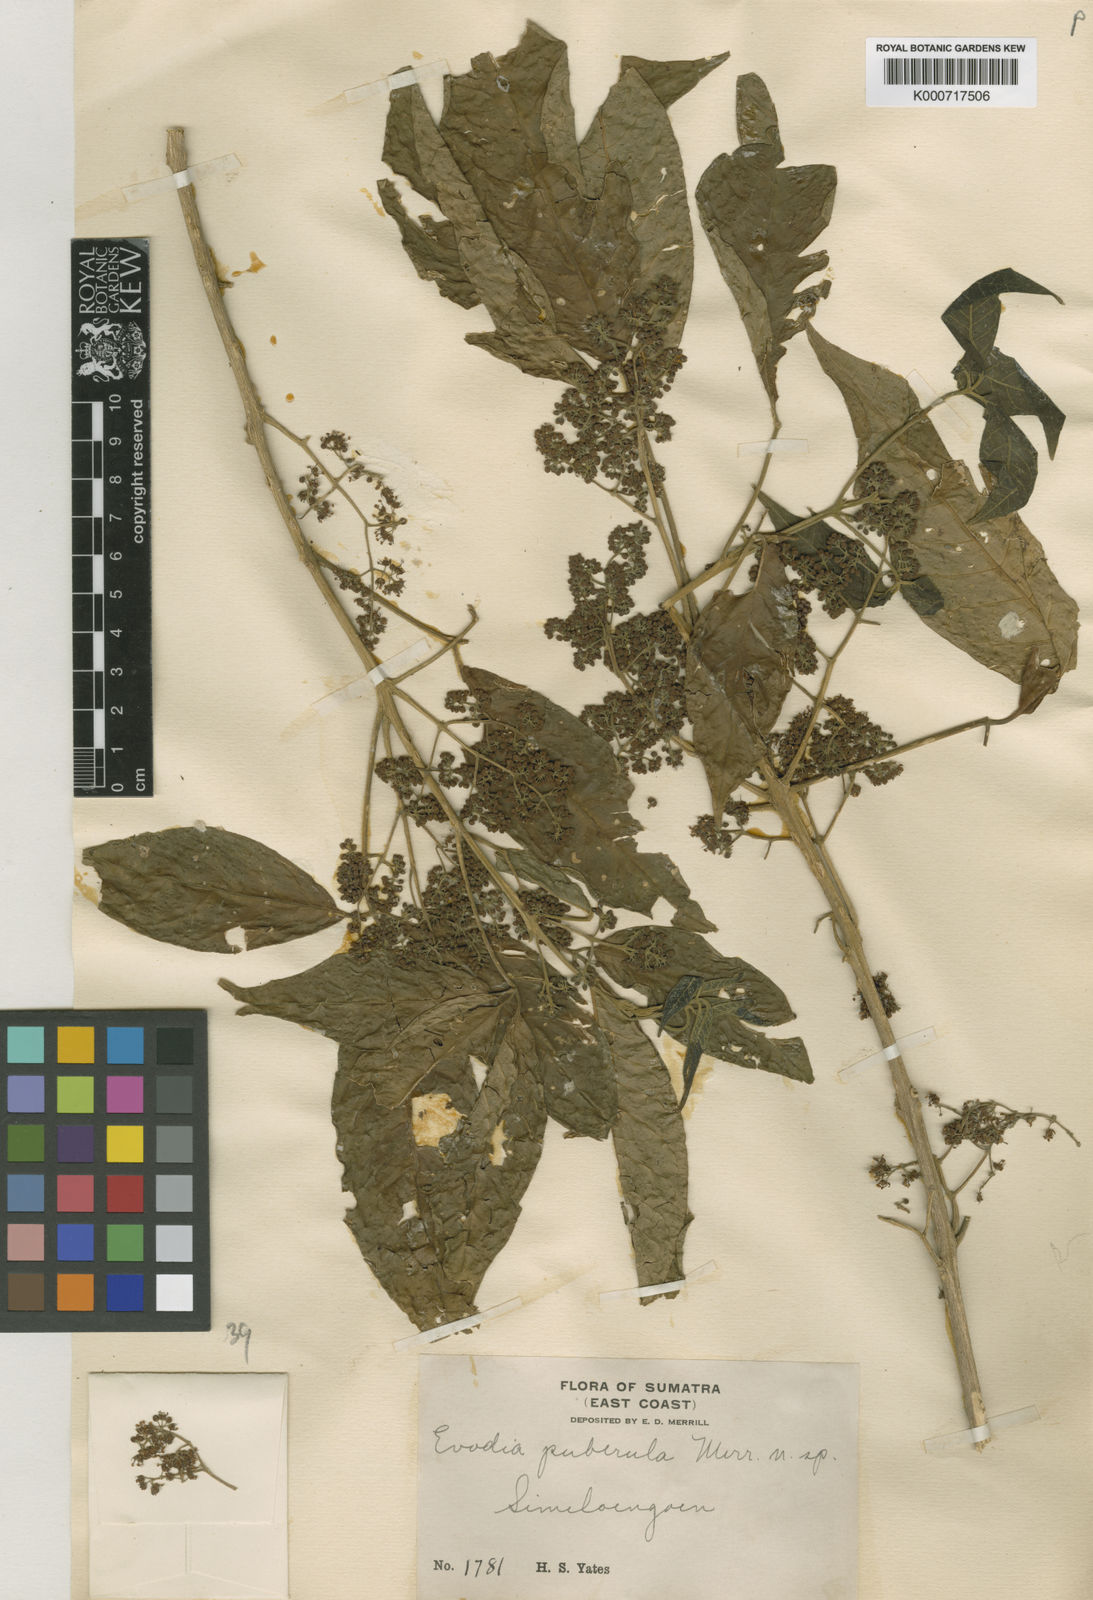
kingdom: Plantae
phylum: Tracheophyta
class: Magnoliopsida
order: Sapindales
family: Rutaceae
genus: Euodia
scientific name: Euodia
